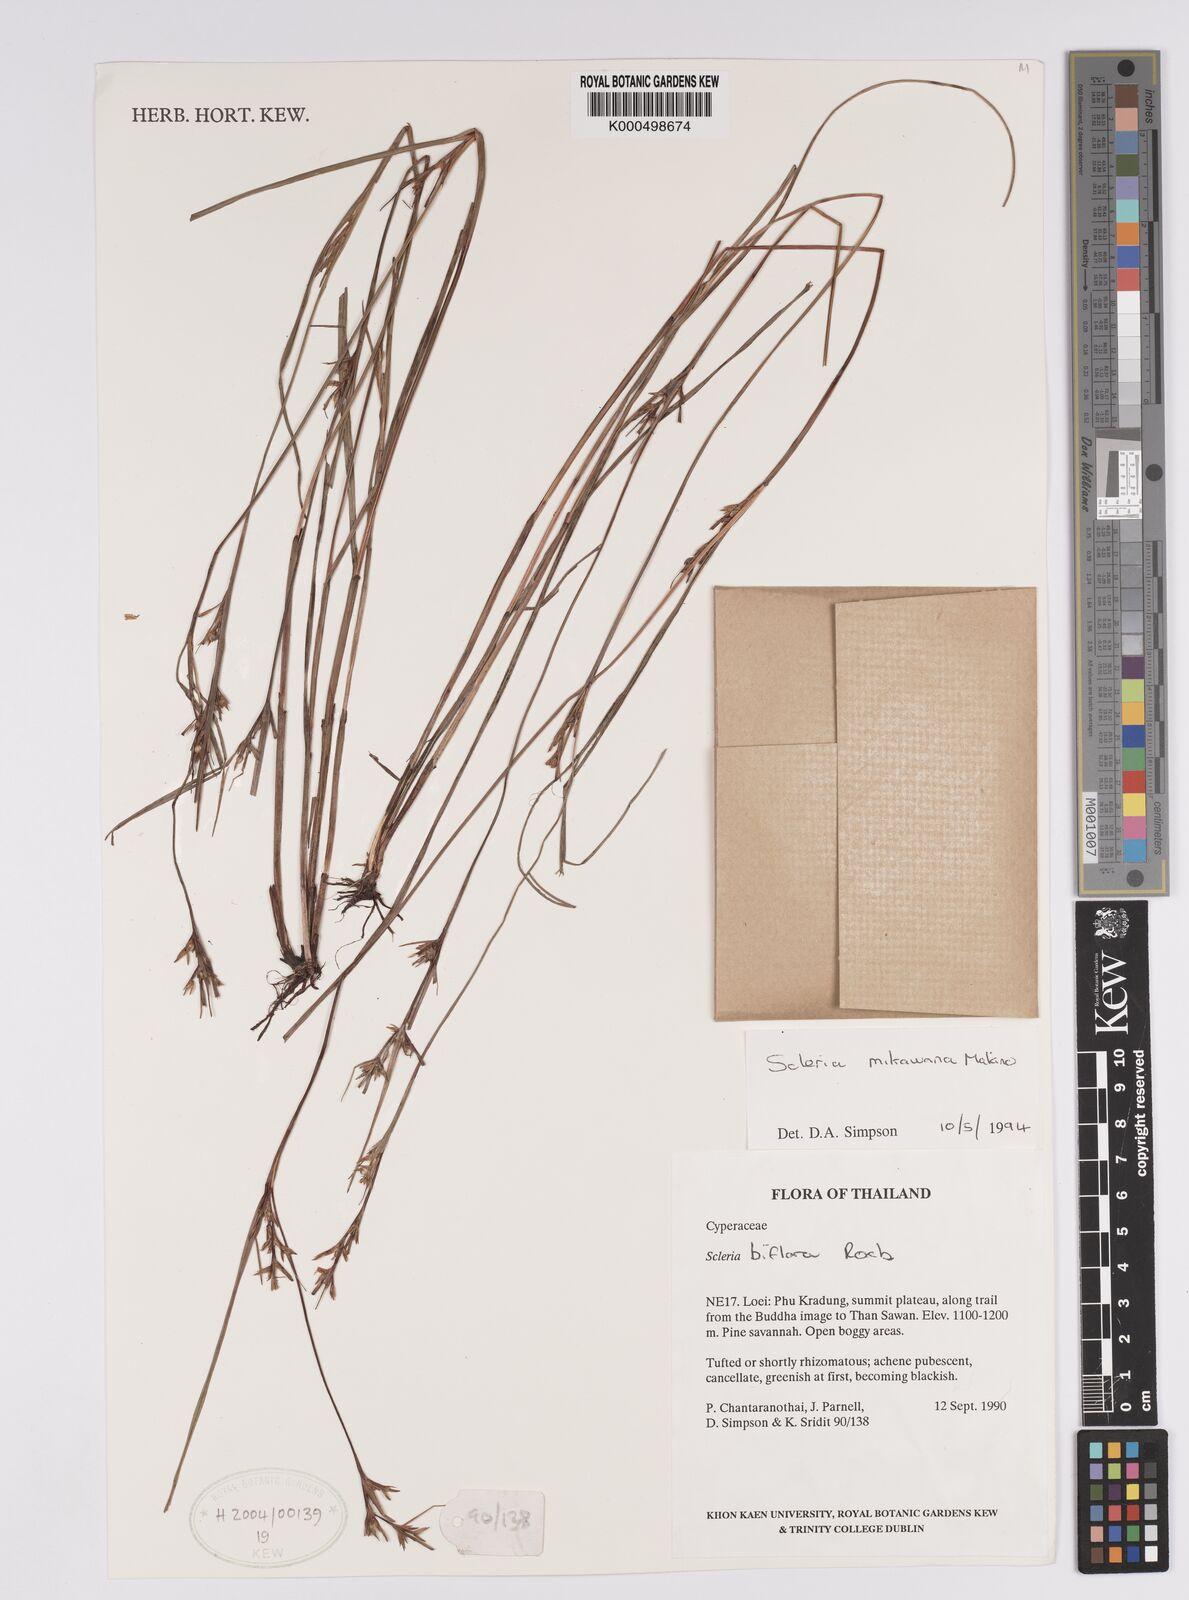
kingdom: Plantae
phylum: Tracheophyta
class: Liliopsida
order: Poales
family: Cyperaceae
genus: Scleria
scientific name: Scleria mikawana
